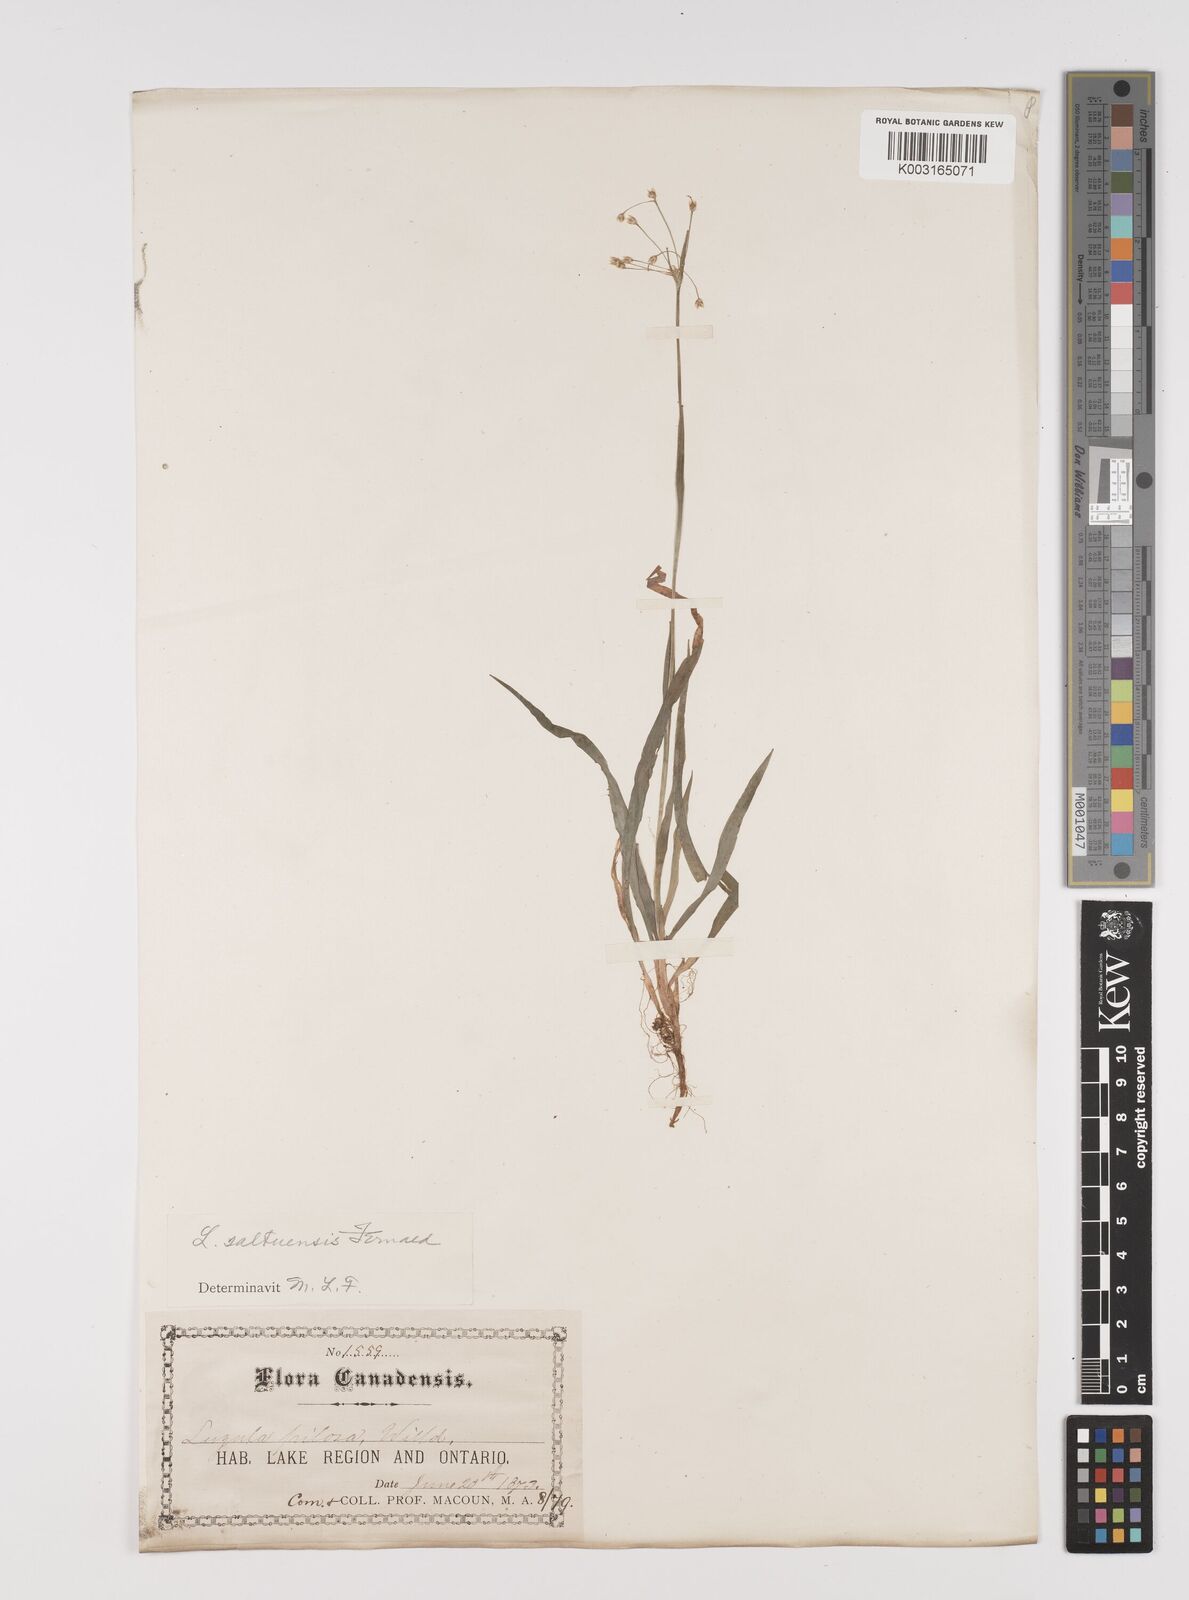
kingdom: Plantae
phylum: Tracheophyta
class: Liliopsida
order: Poales
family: Juncaceae
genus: Luzula
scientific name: Luzula acuminata
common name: Hairy woodrush
